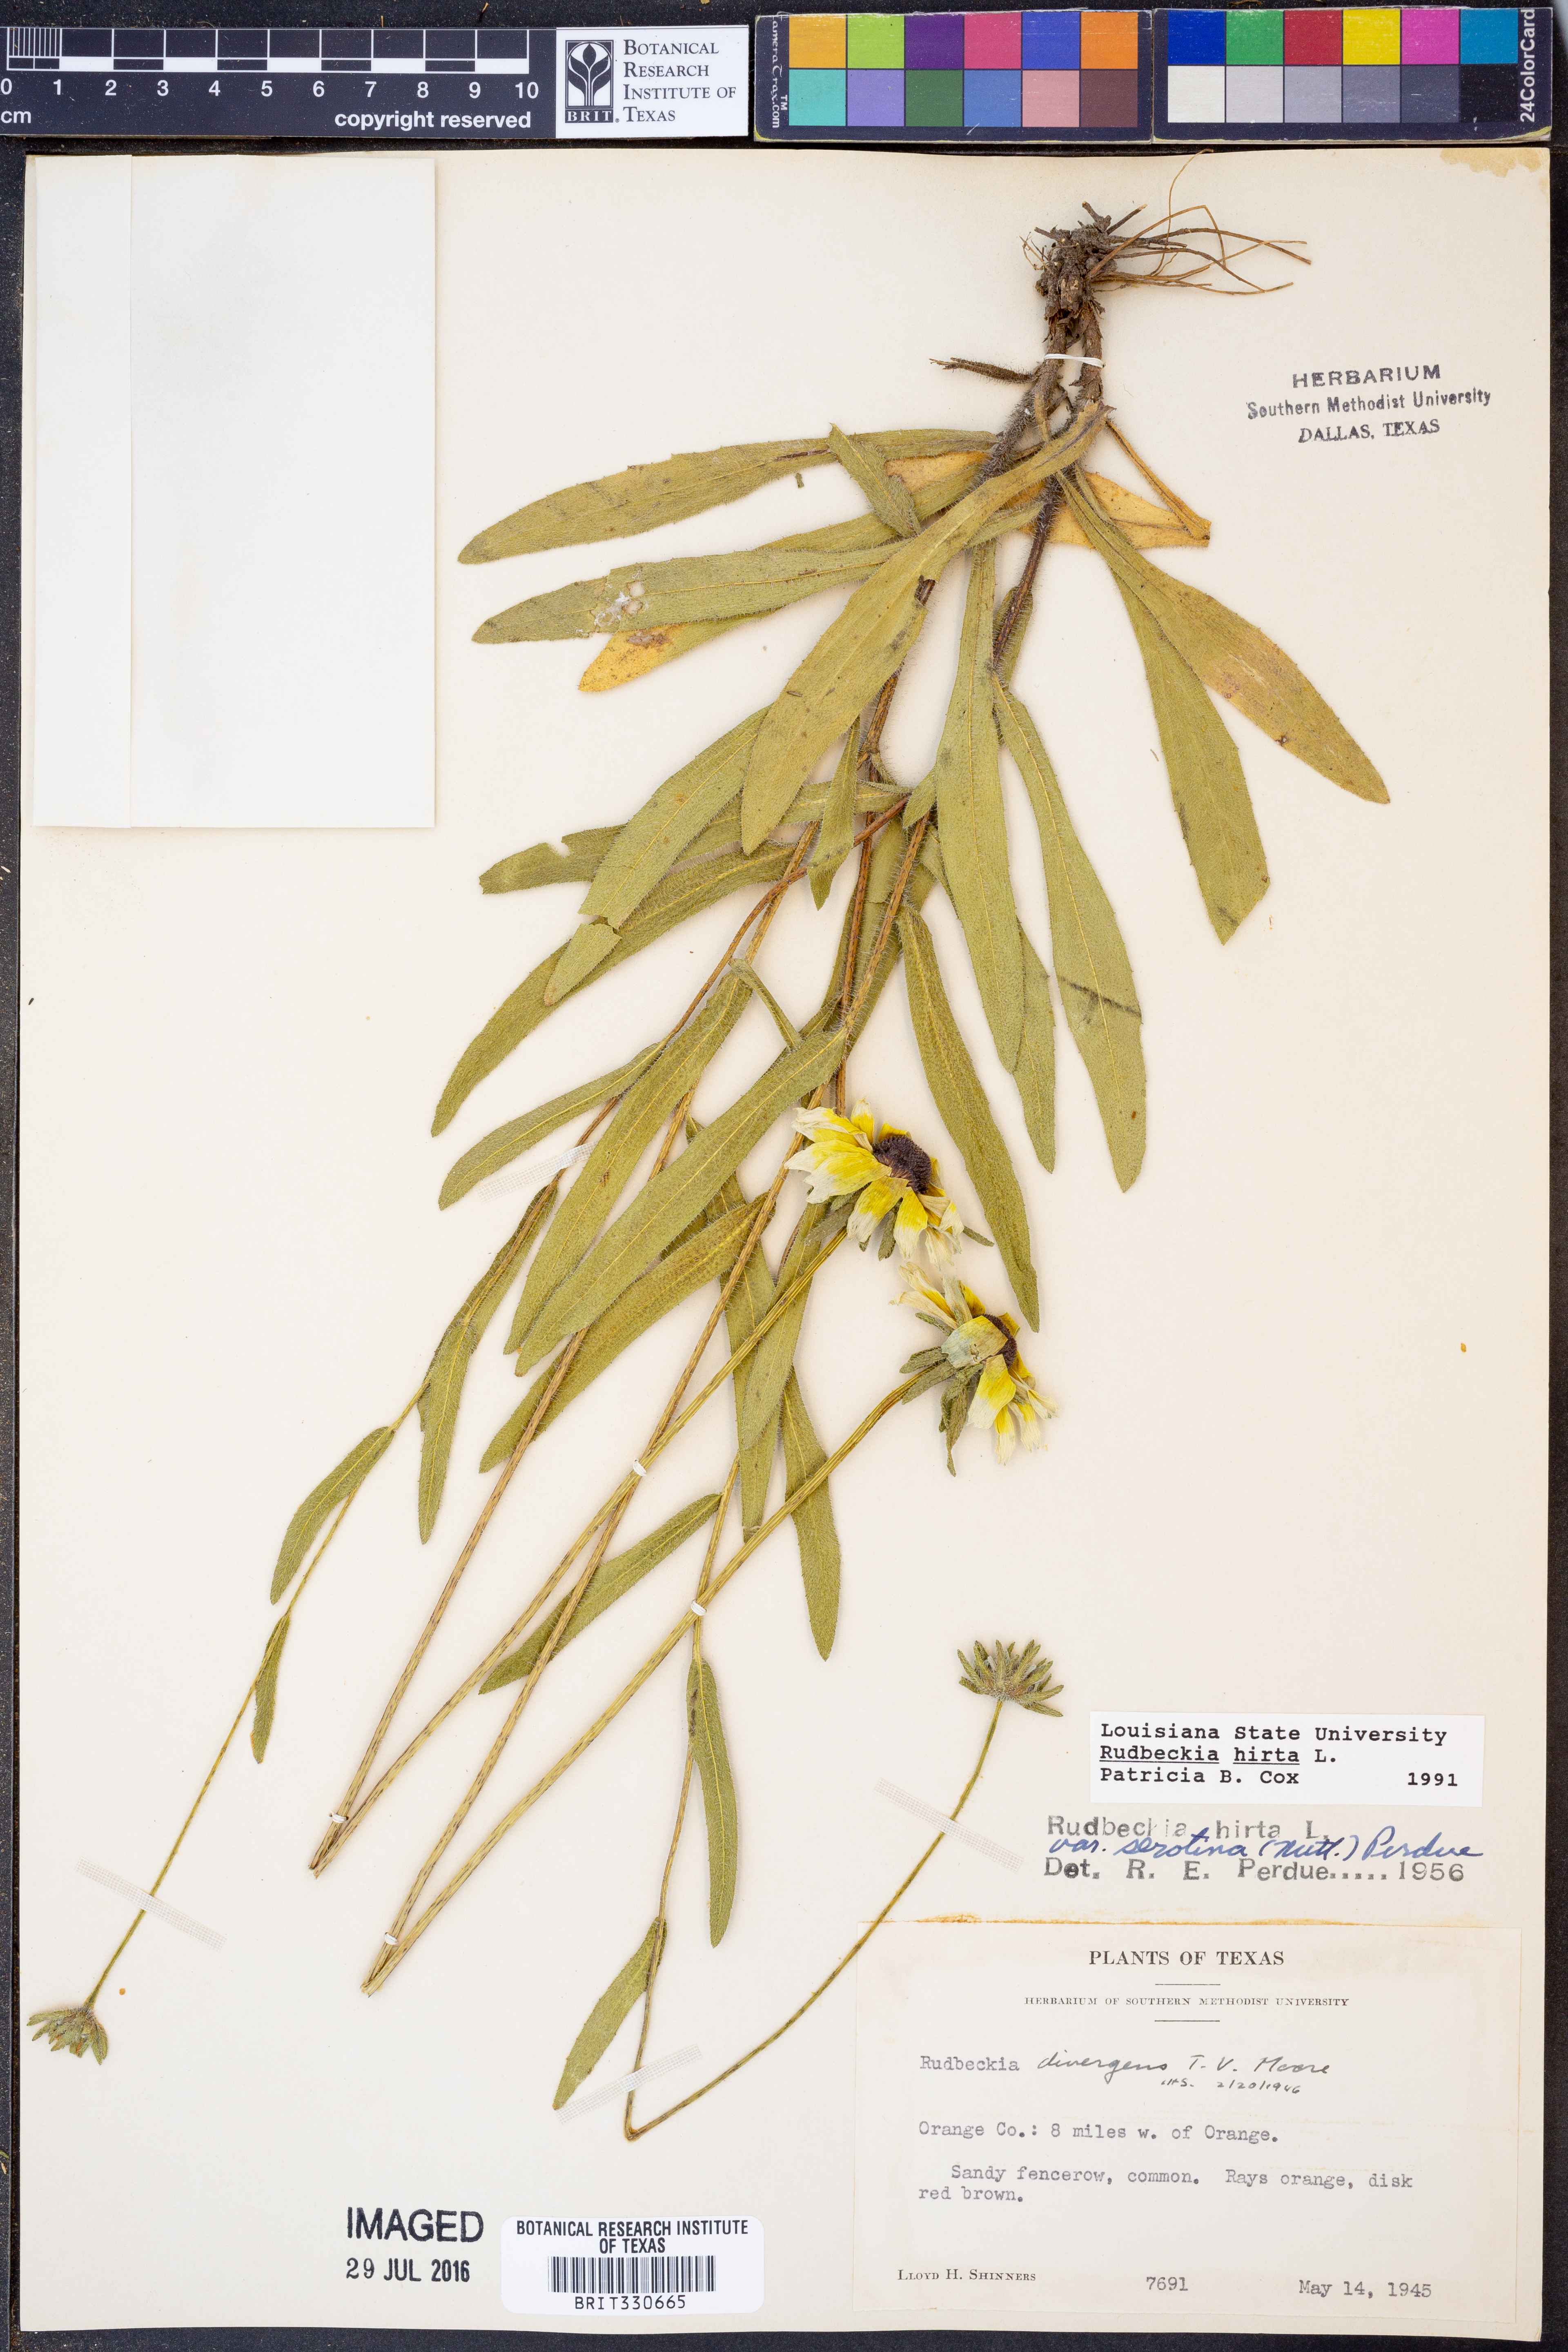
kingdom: Plantae
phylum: Tracheophyta
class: Magnoliopsida
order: Asterales
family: Asteraceae
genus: Rudbeckia
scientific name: Rudbeckia hirta
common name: Black-eyed-susan
